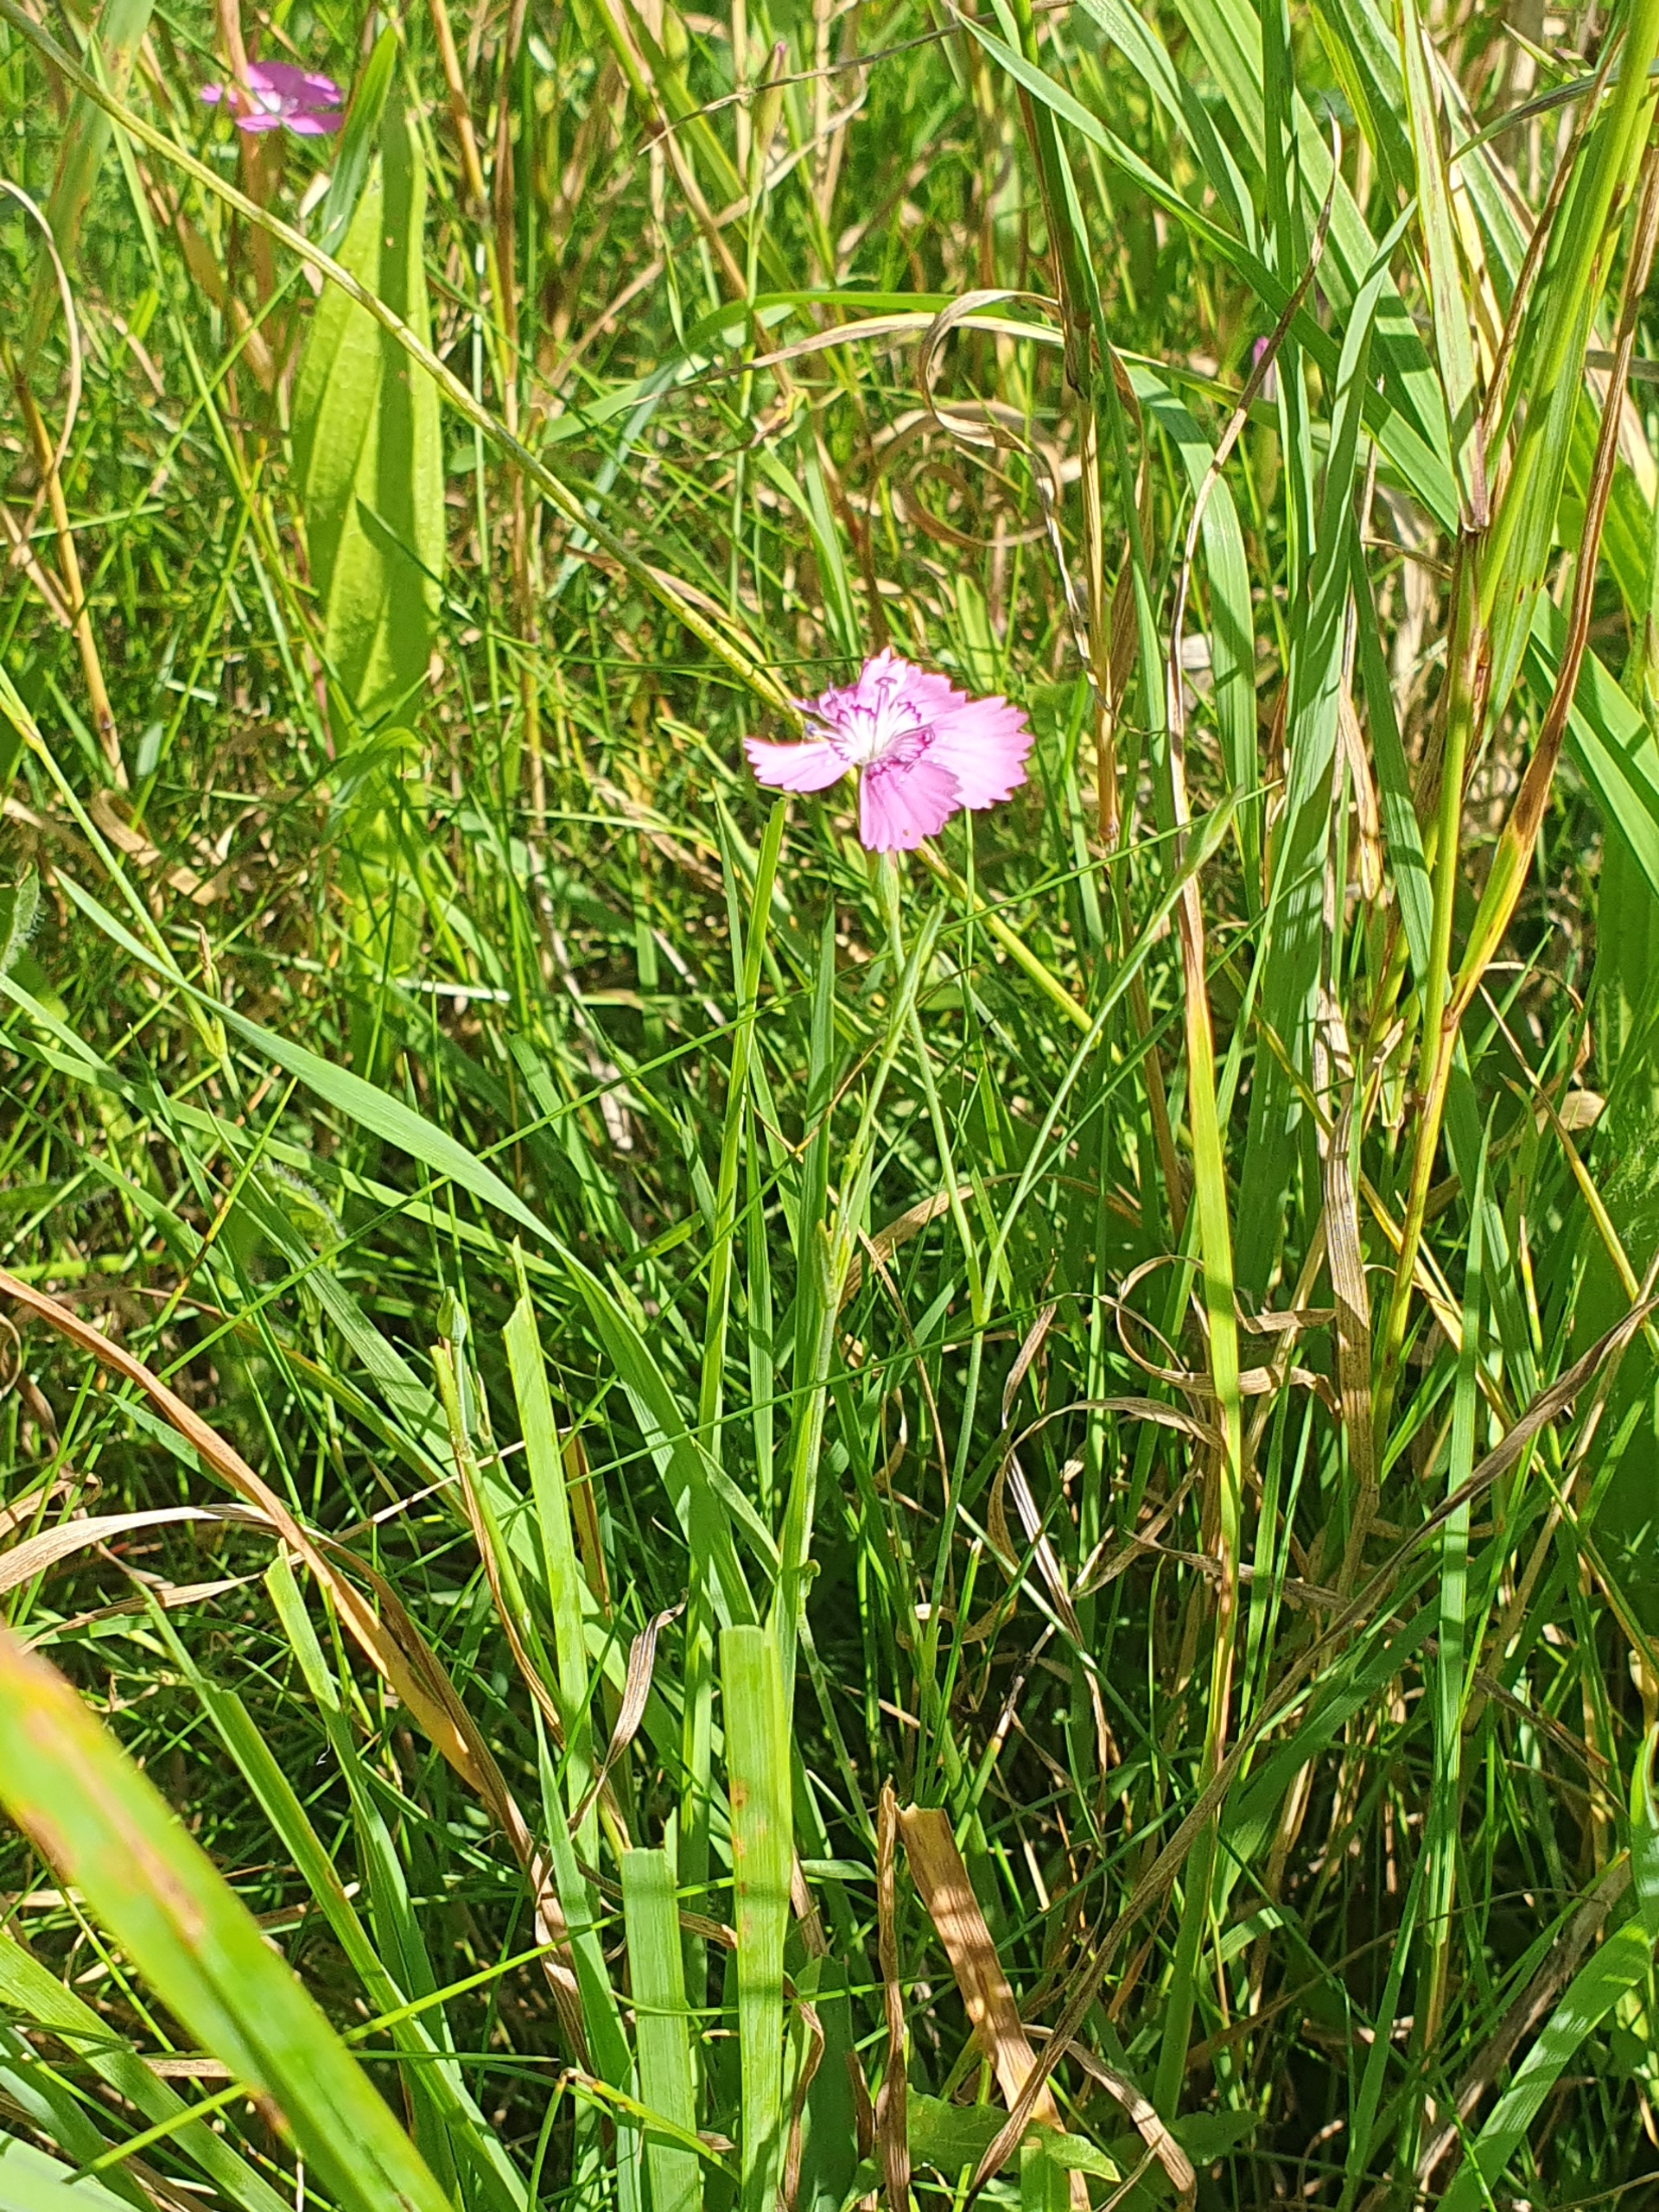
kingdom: Plantae
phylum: Tracheophyta
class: Magnoliopsida
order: Caryophyllales
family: Caryophyllaceae
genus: Dianthus
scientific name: Dianthus deltoides
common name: Bakke-nellike
